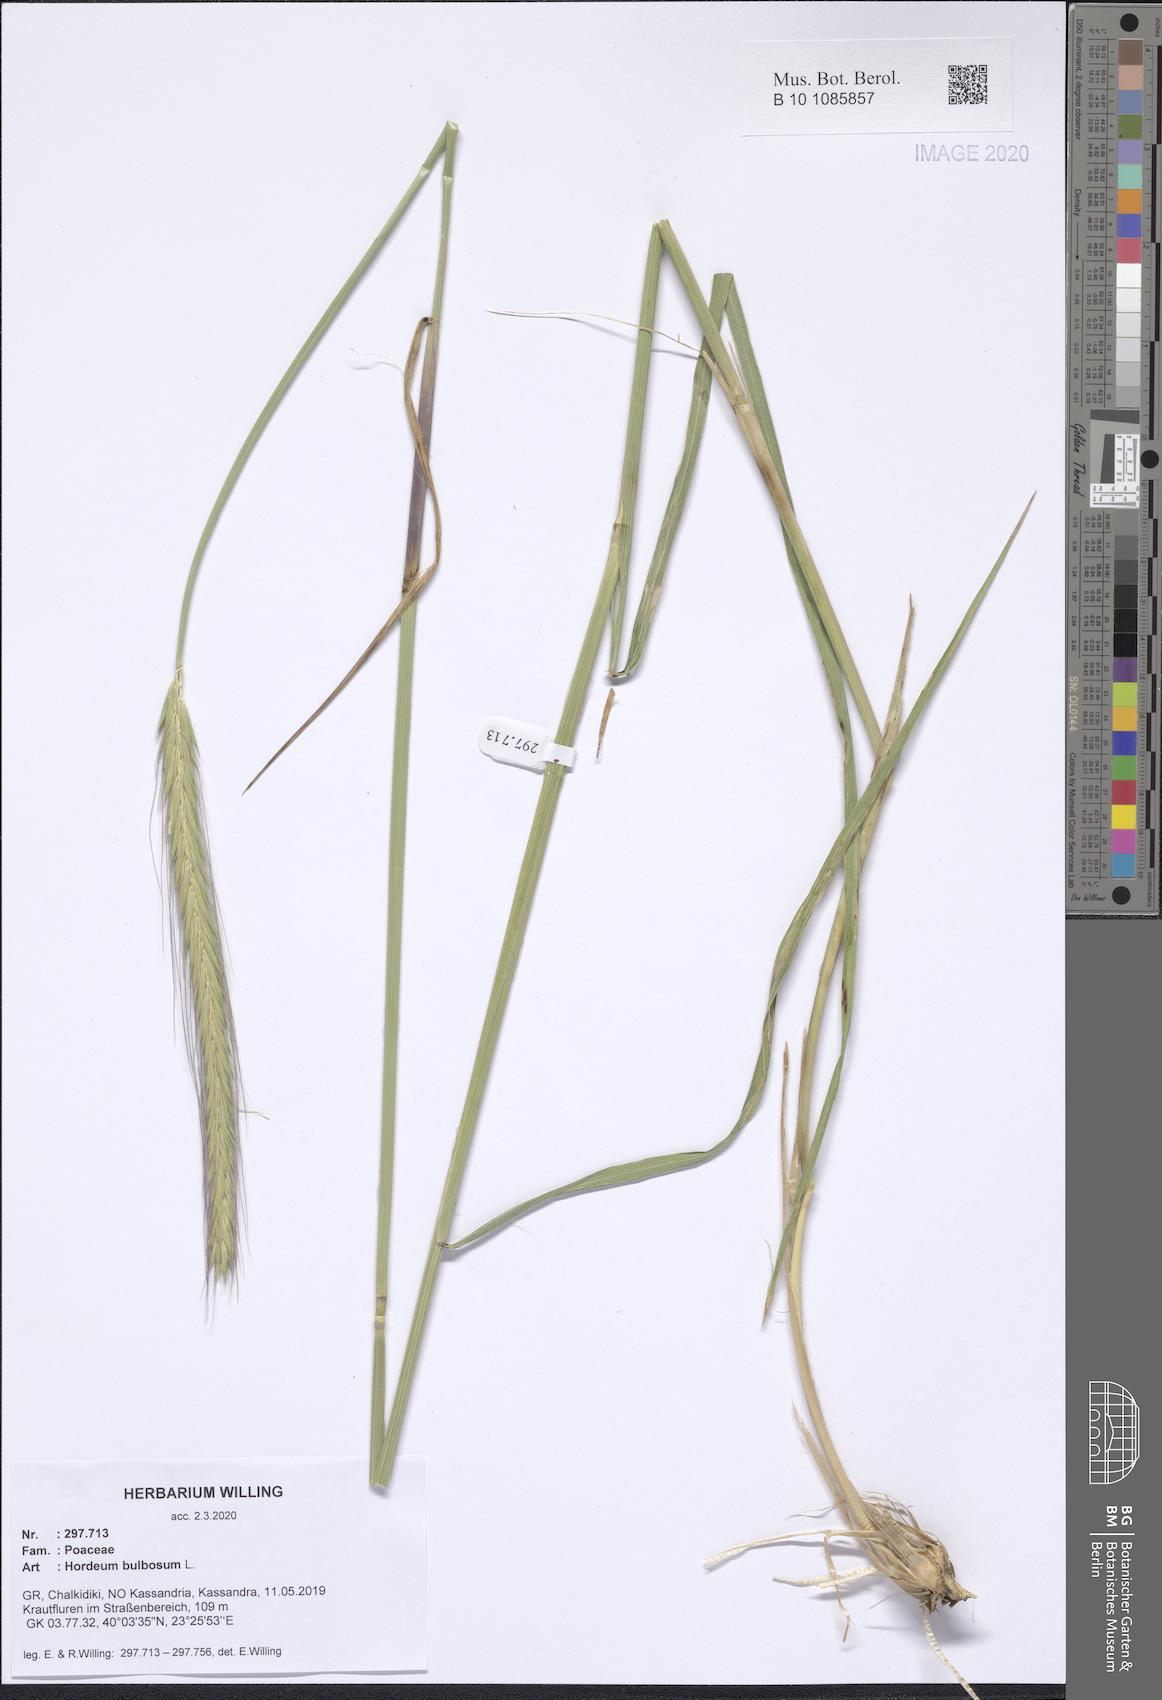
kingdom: Plantae
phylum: Tracheophyta
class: Liliopsida
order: Poales
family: Poaceae
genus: Hordeum
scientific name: Hordeum bulbosum
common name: Bulbous barley
